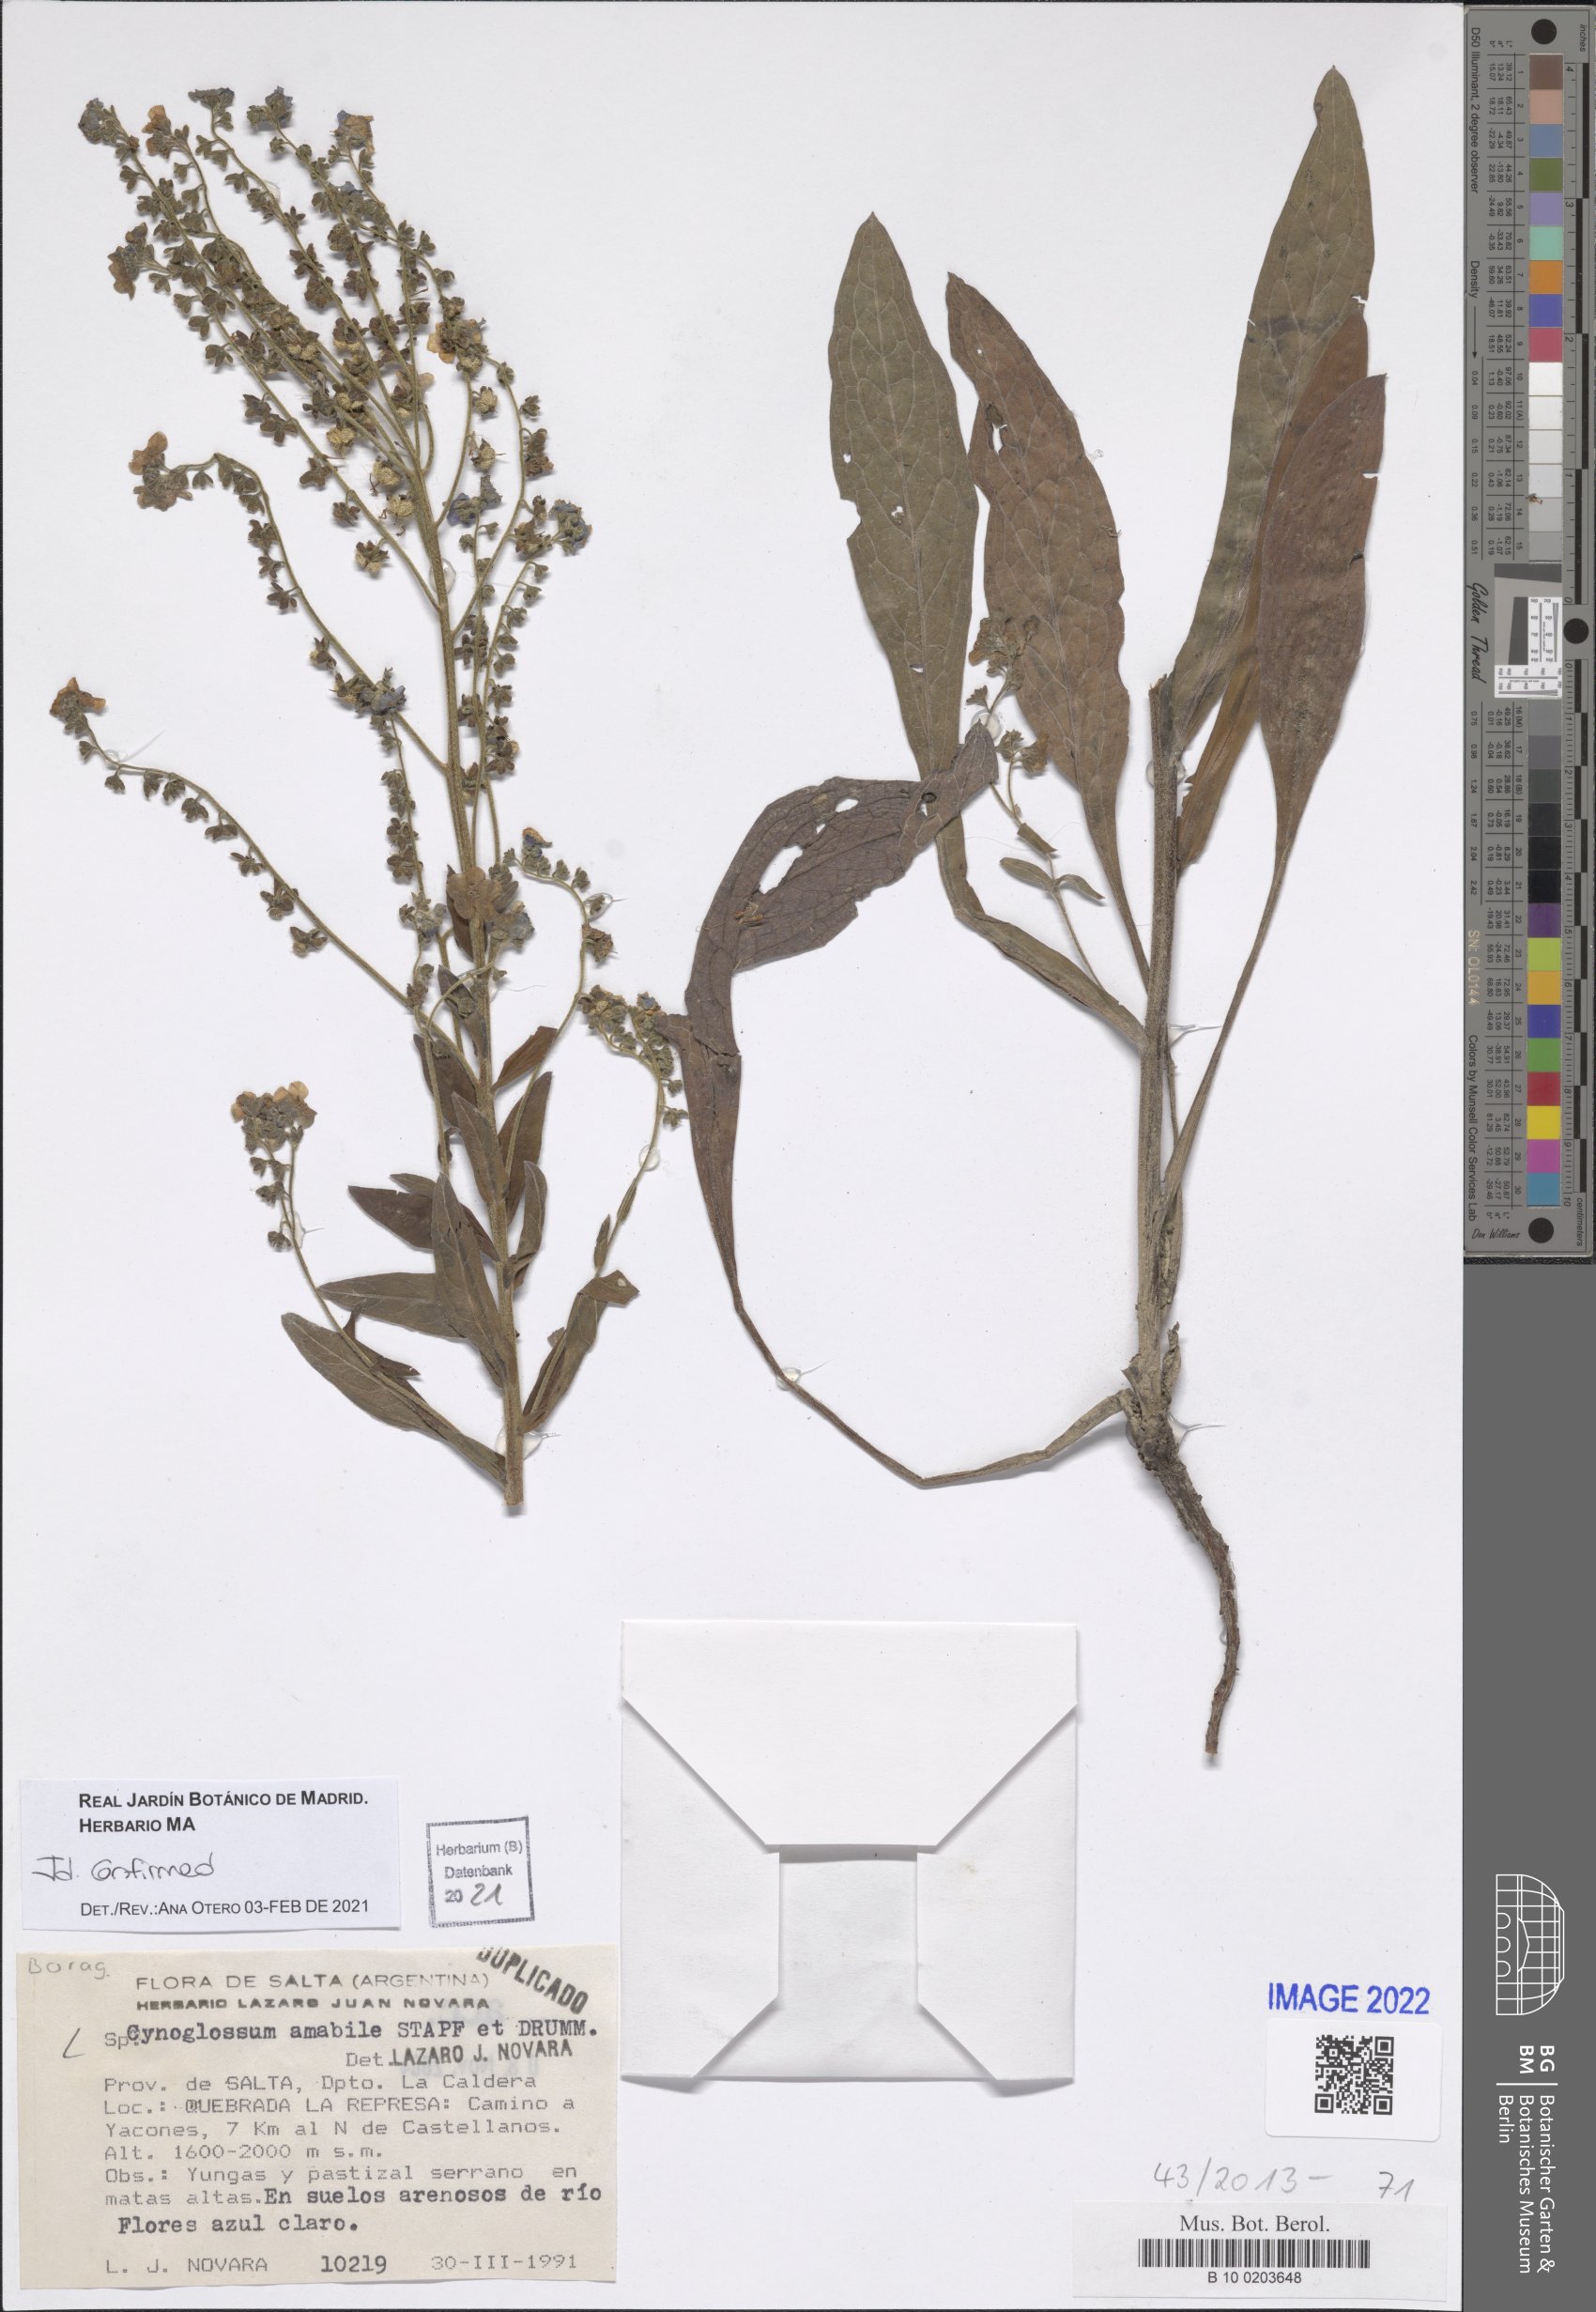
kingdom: Plantae
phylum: Tracheophyta
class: Magnoliopsida
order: Boraginales
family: Boraginaceae
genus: Cynoglossum
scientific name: Cynoglossum amabile
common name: Chinese hound's tongue
